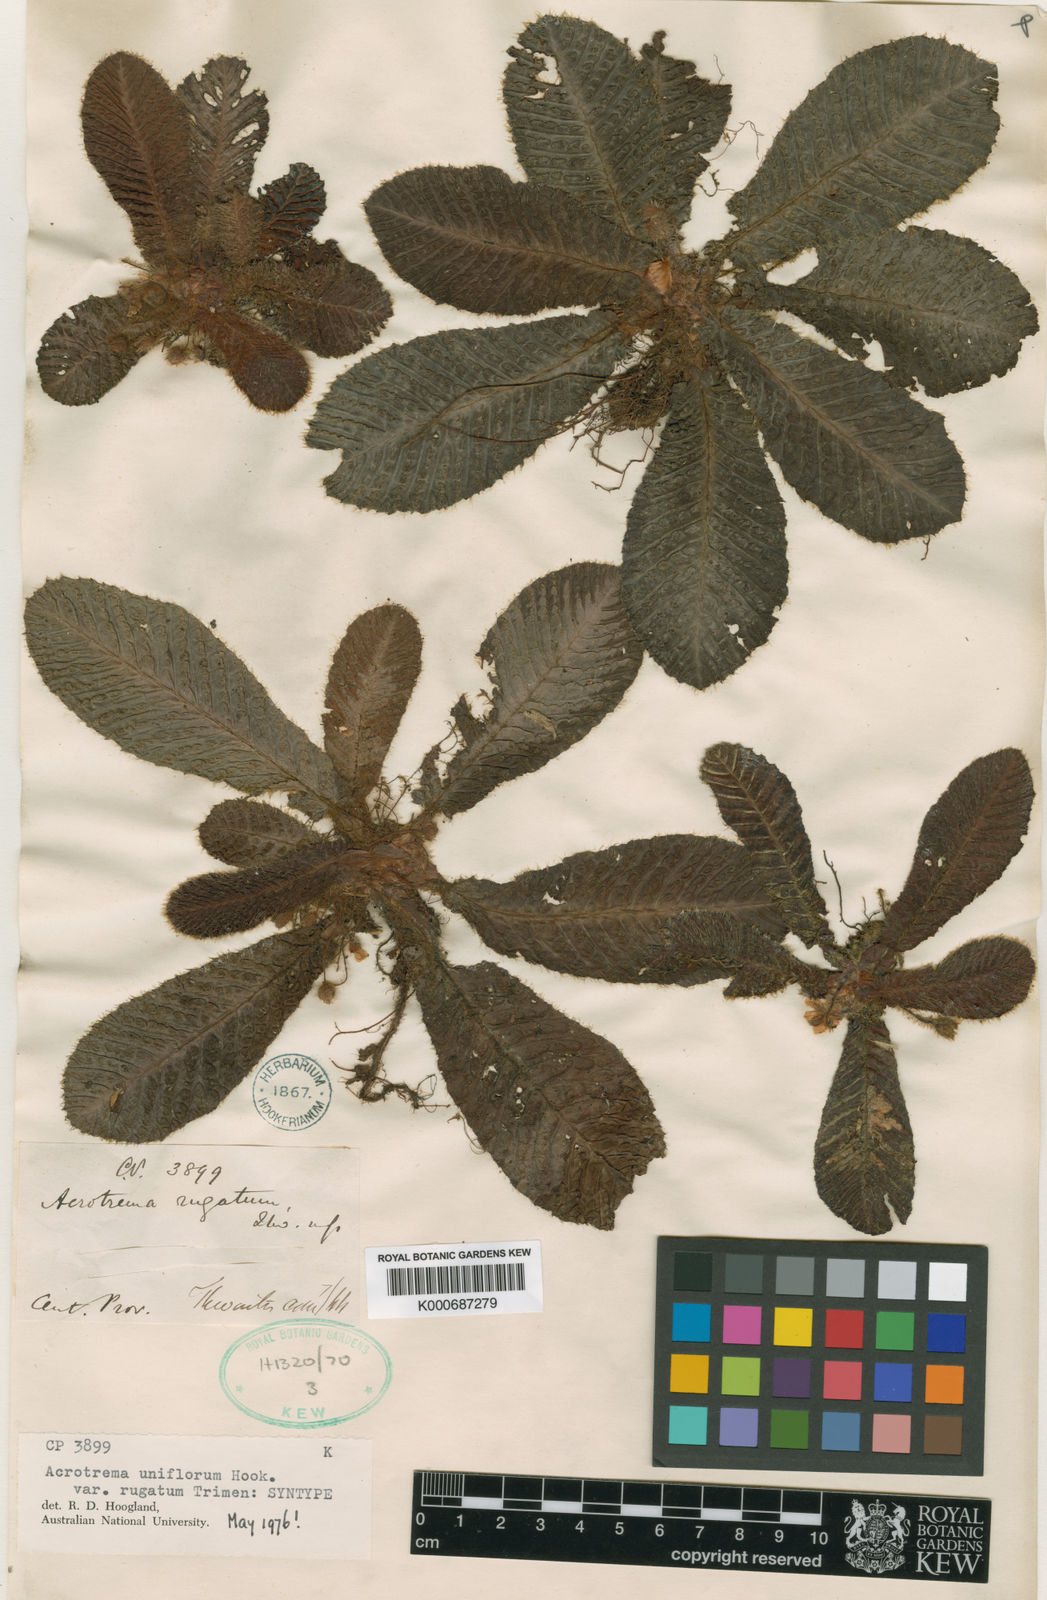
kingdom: Plantae
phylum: Tracheophyta
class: Magnoliopsida
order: Dilleniales
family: Dilleniaceae
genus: Acrotrema
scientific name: Acrotrema
